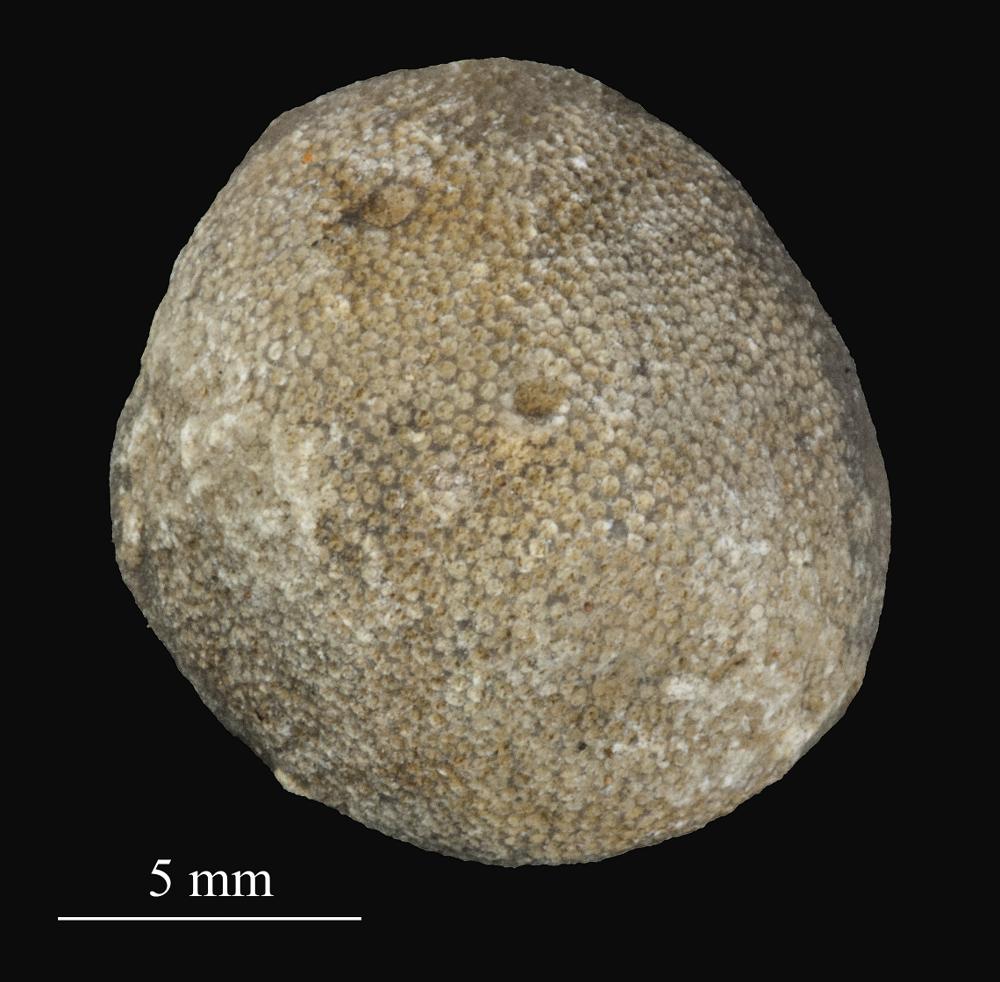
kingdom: Animalia
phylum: Bryozoa
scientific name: Bryozoa
